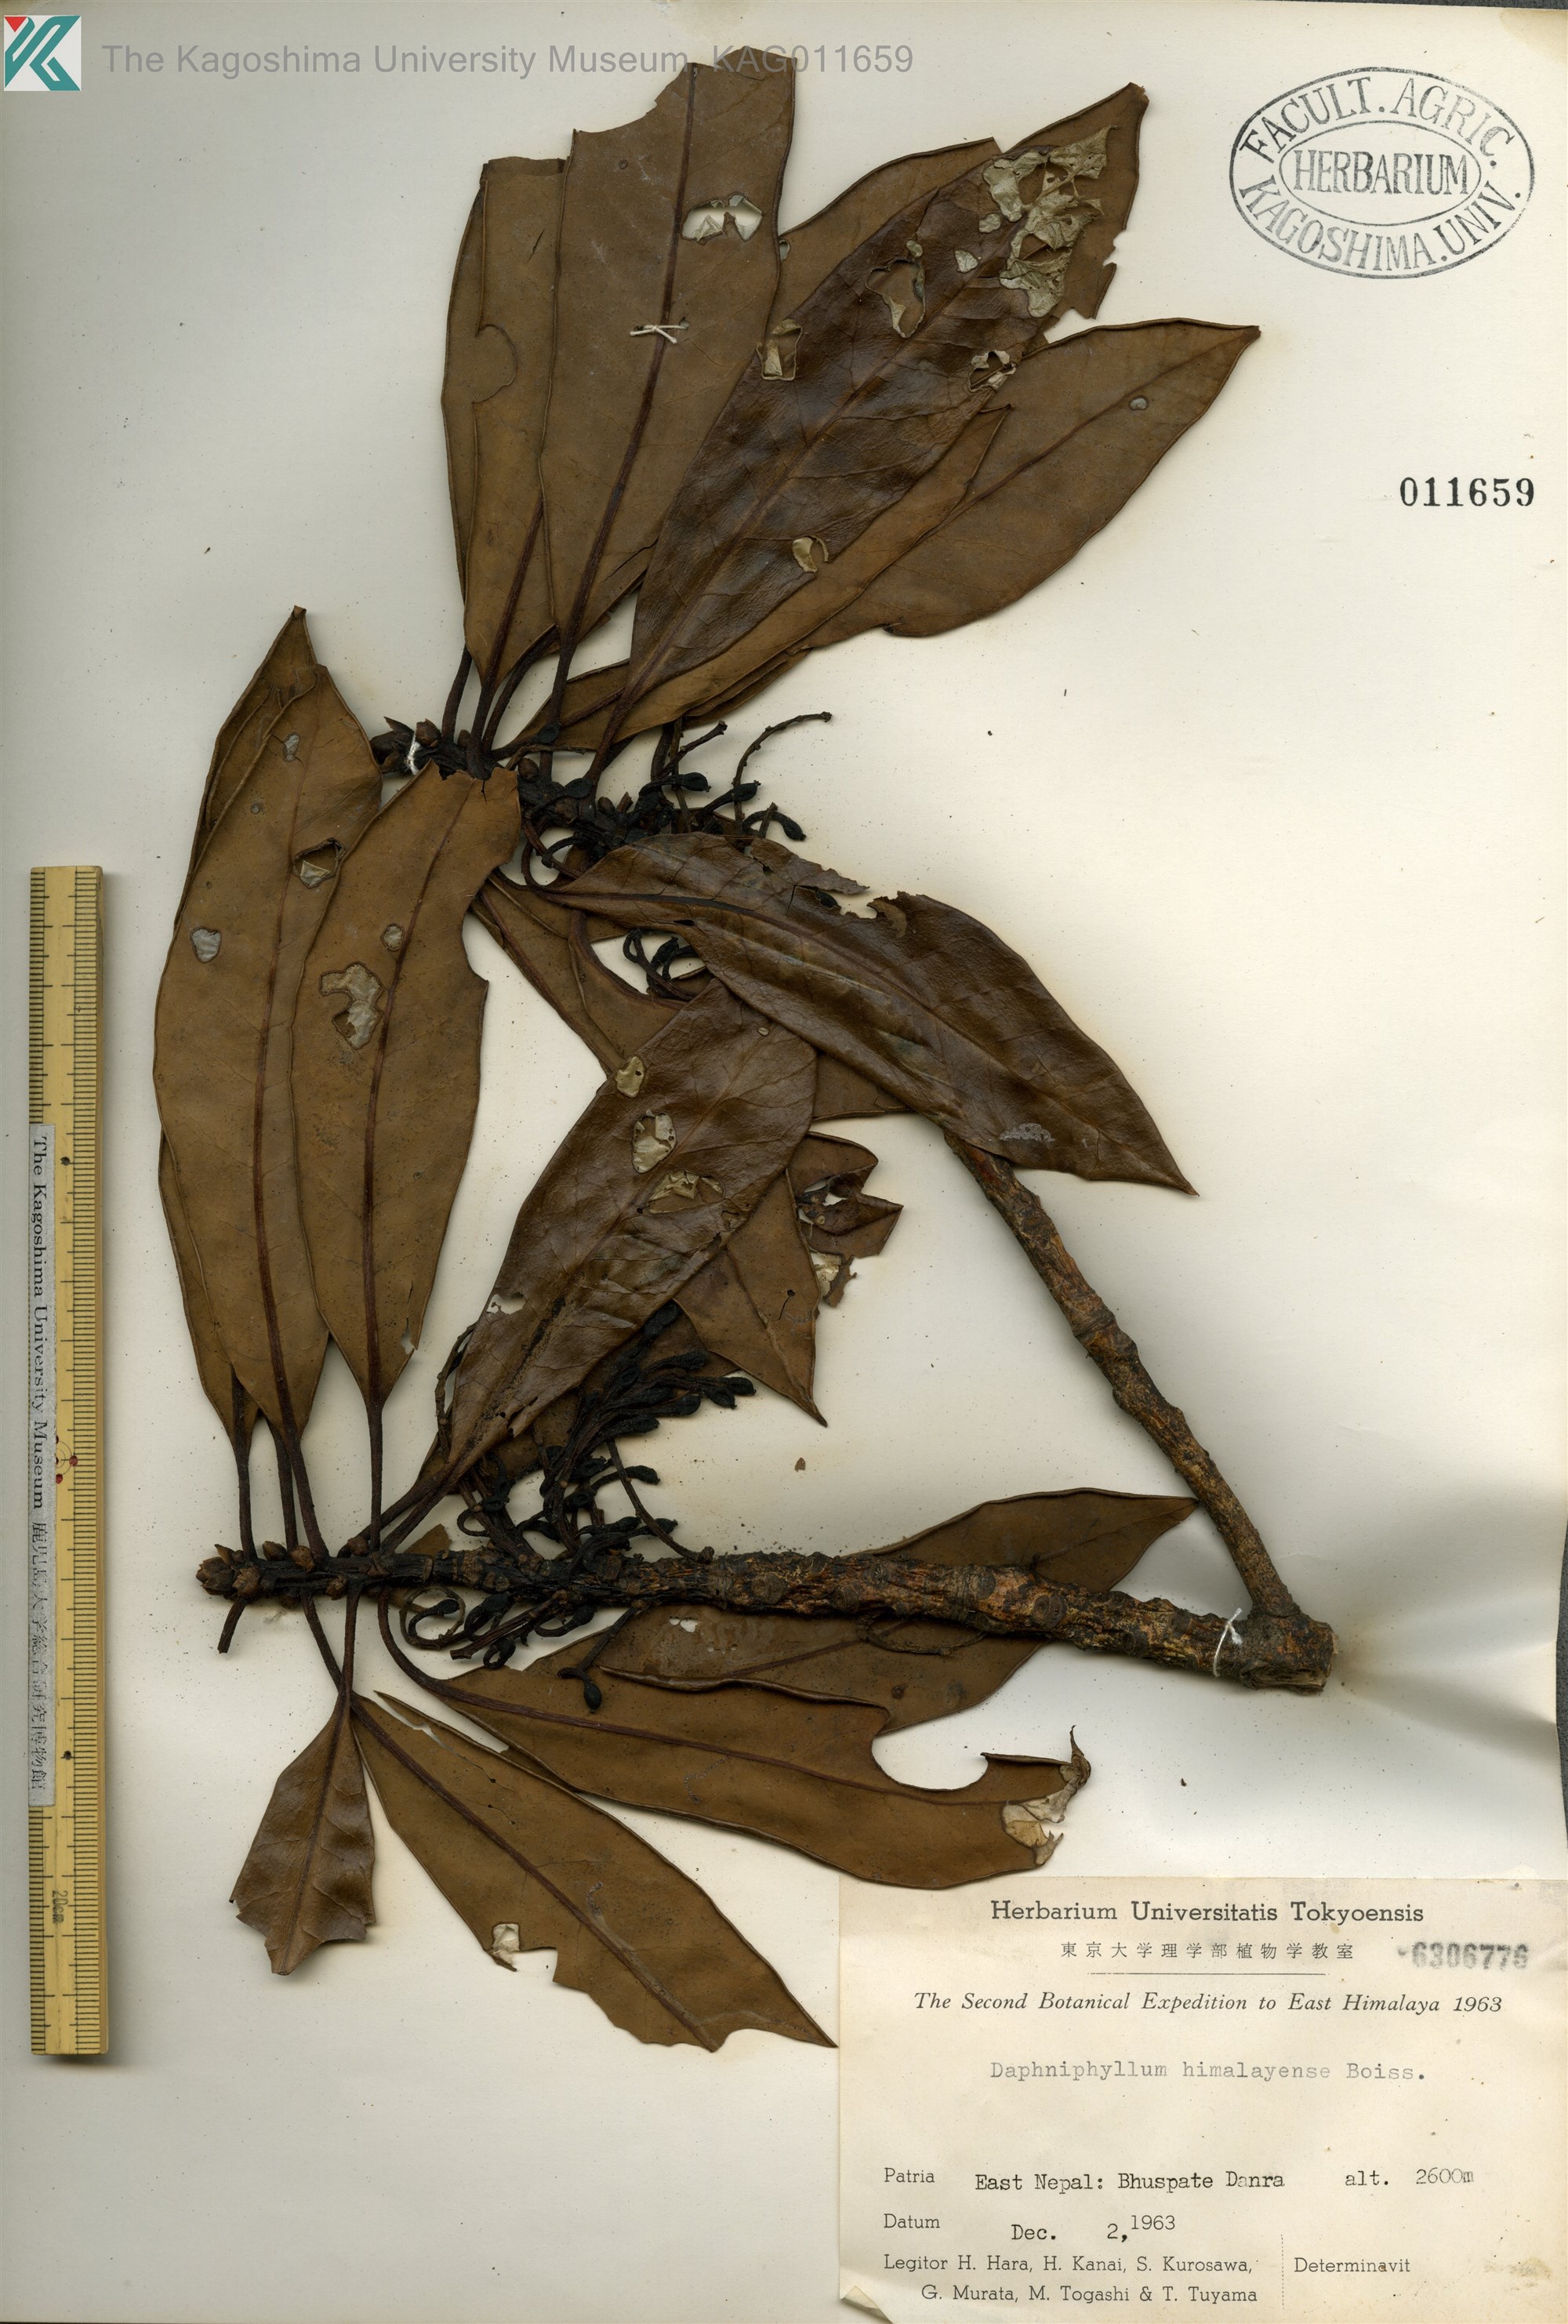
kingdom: Plantae
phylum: Tracheophyta
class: Magnoliopsida
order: Saxifragales
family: Daphniphyllaceae
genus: Daphniphyllum
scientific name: Daphniphyllum
